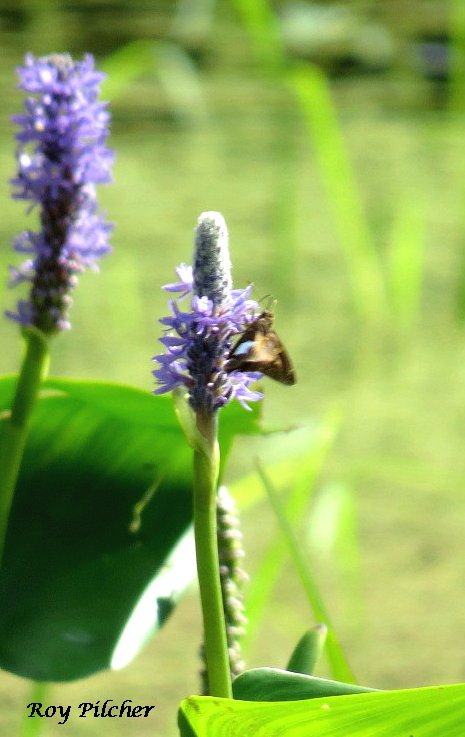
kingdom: Animalia
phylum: Arthropoda
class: Insecta
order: Lepidoptera
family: Hesperiidae
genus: Epargyreus
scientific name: Epargyreus clarus
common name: Silver-spotted Skipper
